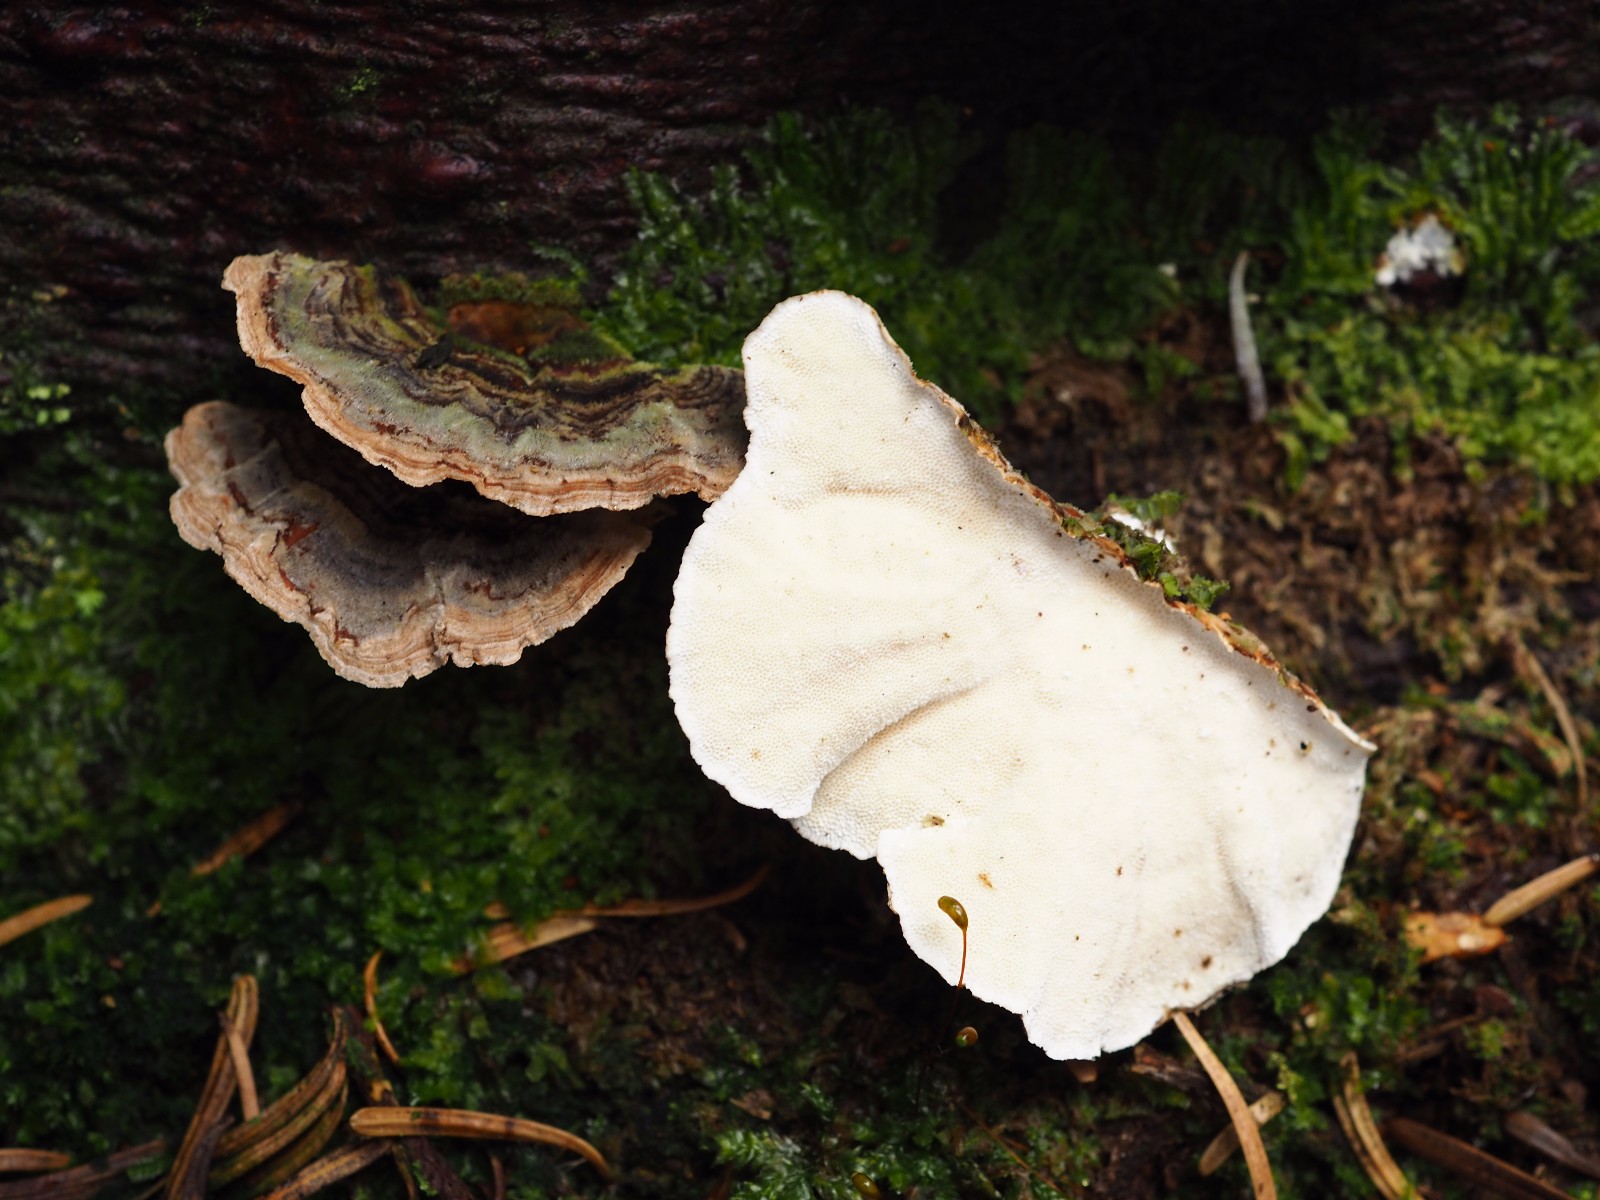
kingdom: Fungi
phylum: Basidiomycota
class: Agaricomycetes
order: Polyporales
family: Polyporaceae
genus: Trametes
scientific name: Trametes versicolor
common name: broget læderporesvamp
